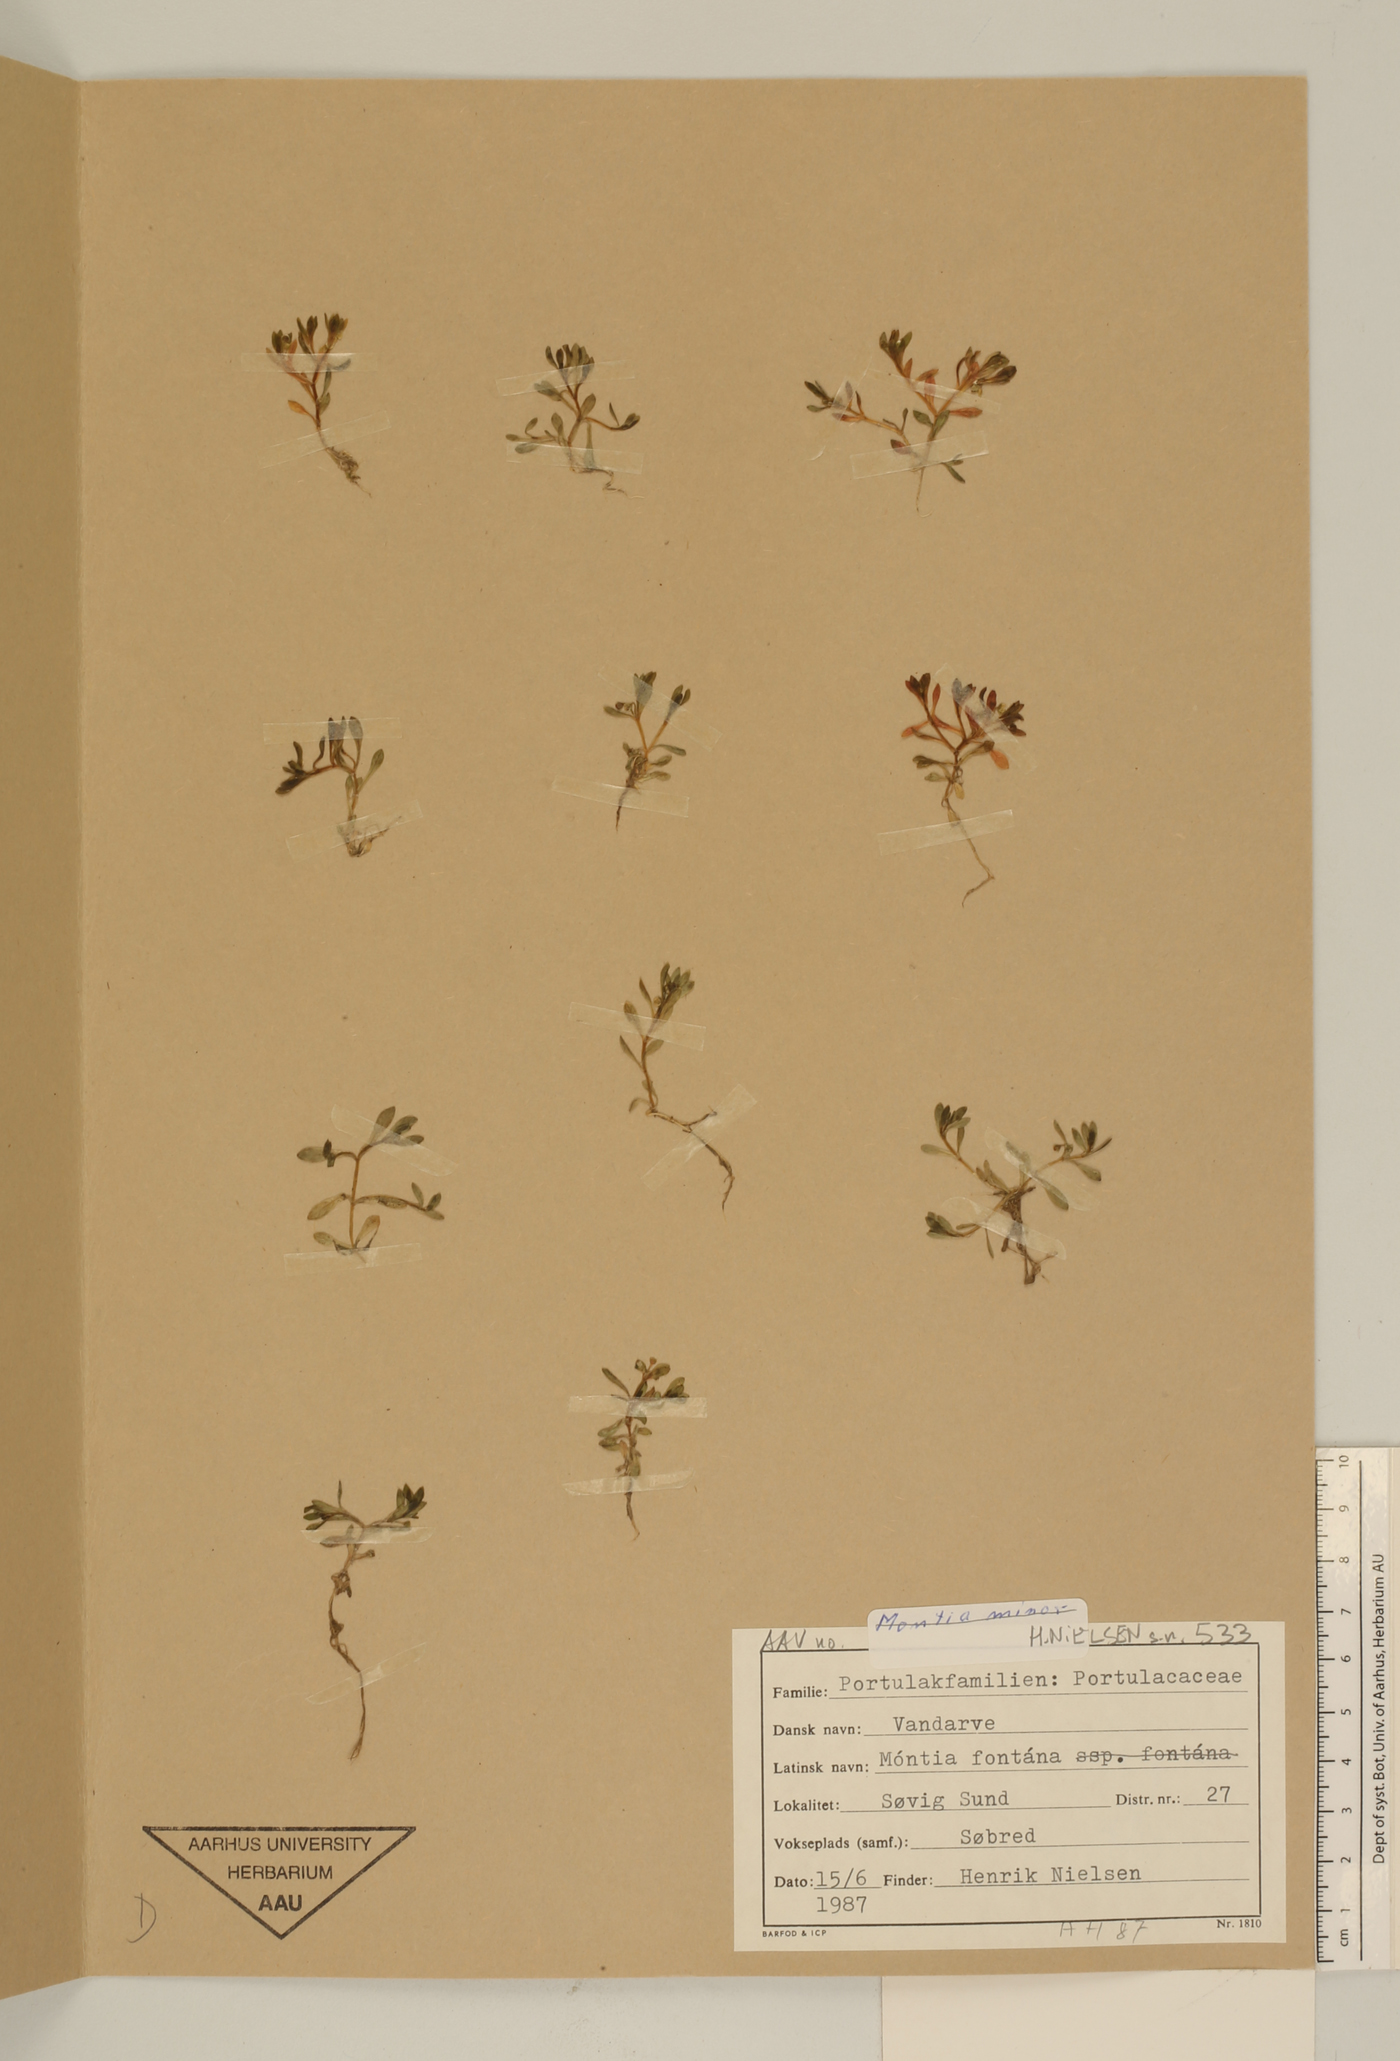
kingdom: Plantae
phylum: Tracheophyta
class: Magnoliopsida
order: Caryophyllales
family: Montiaceae
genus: Montia
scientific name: Montia fontana
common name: Blinks
